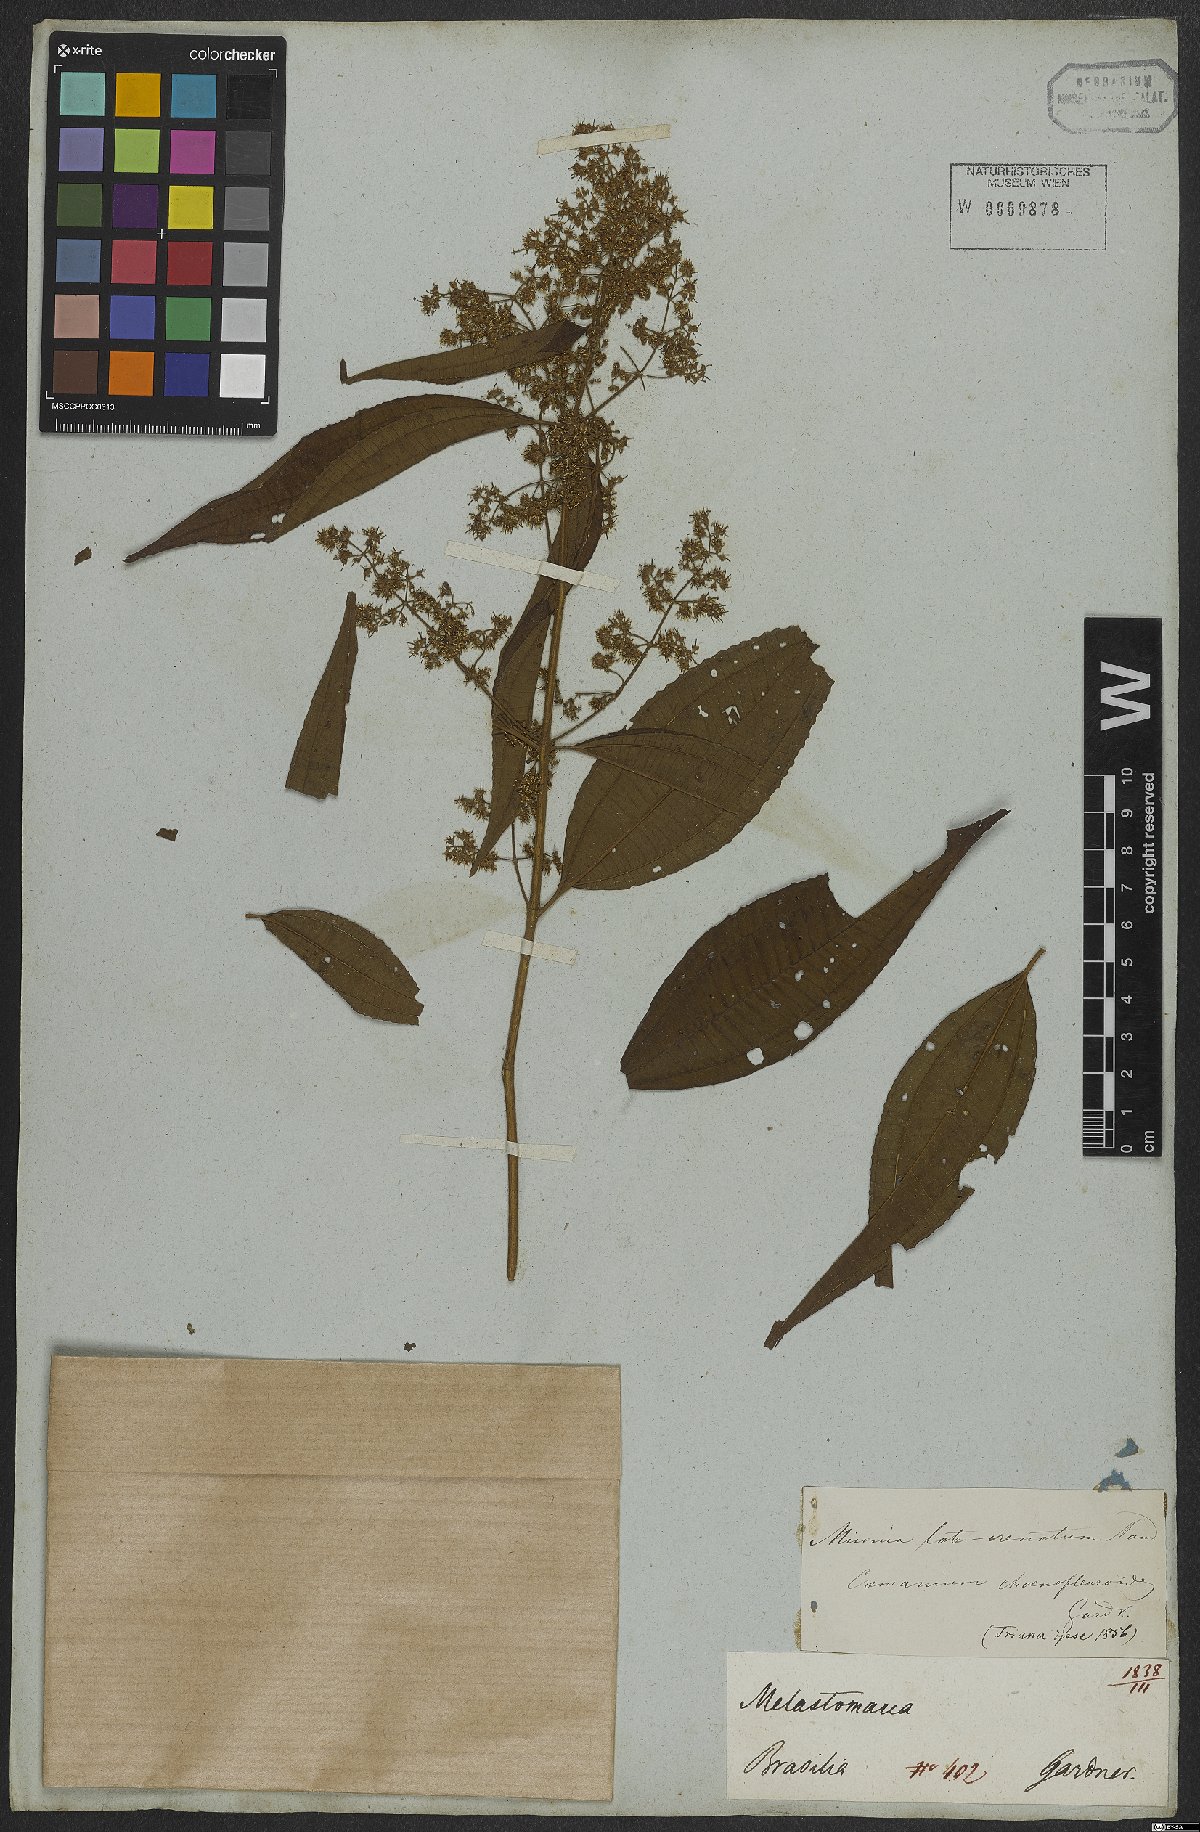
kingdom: Plantae
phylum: Tracheophyta
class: Magnoliopsida
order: Myrtales
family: Melastomataceae
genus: Miconia
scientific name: Miconia latecrenata
